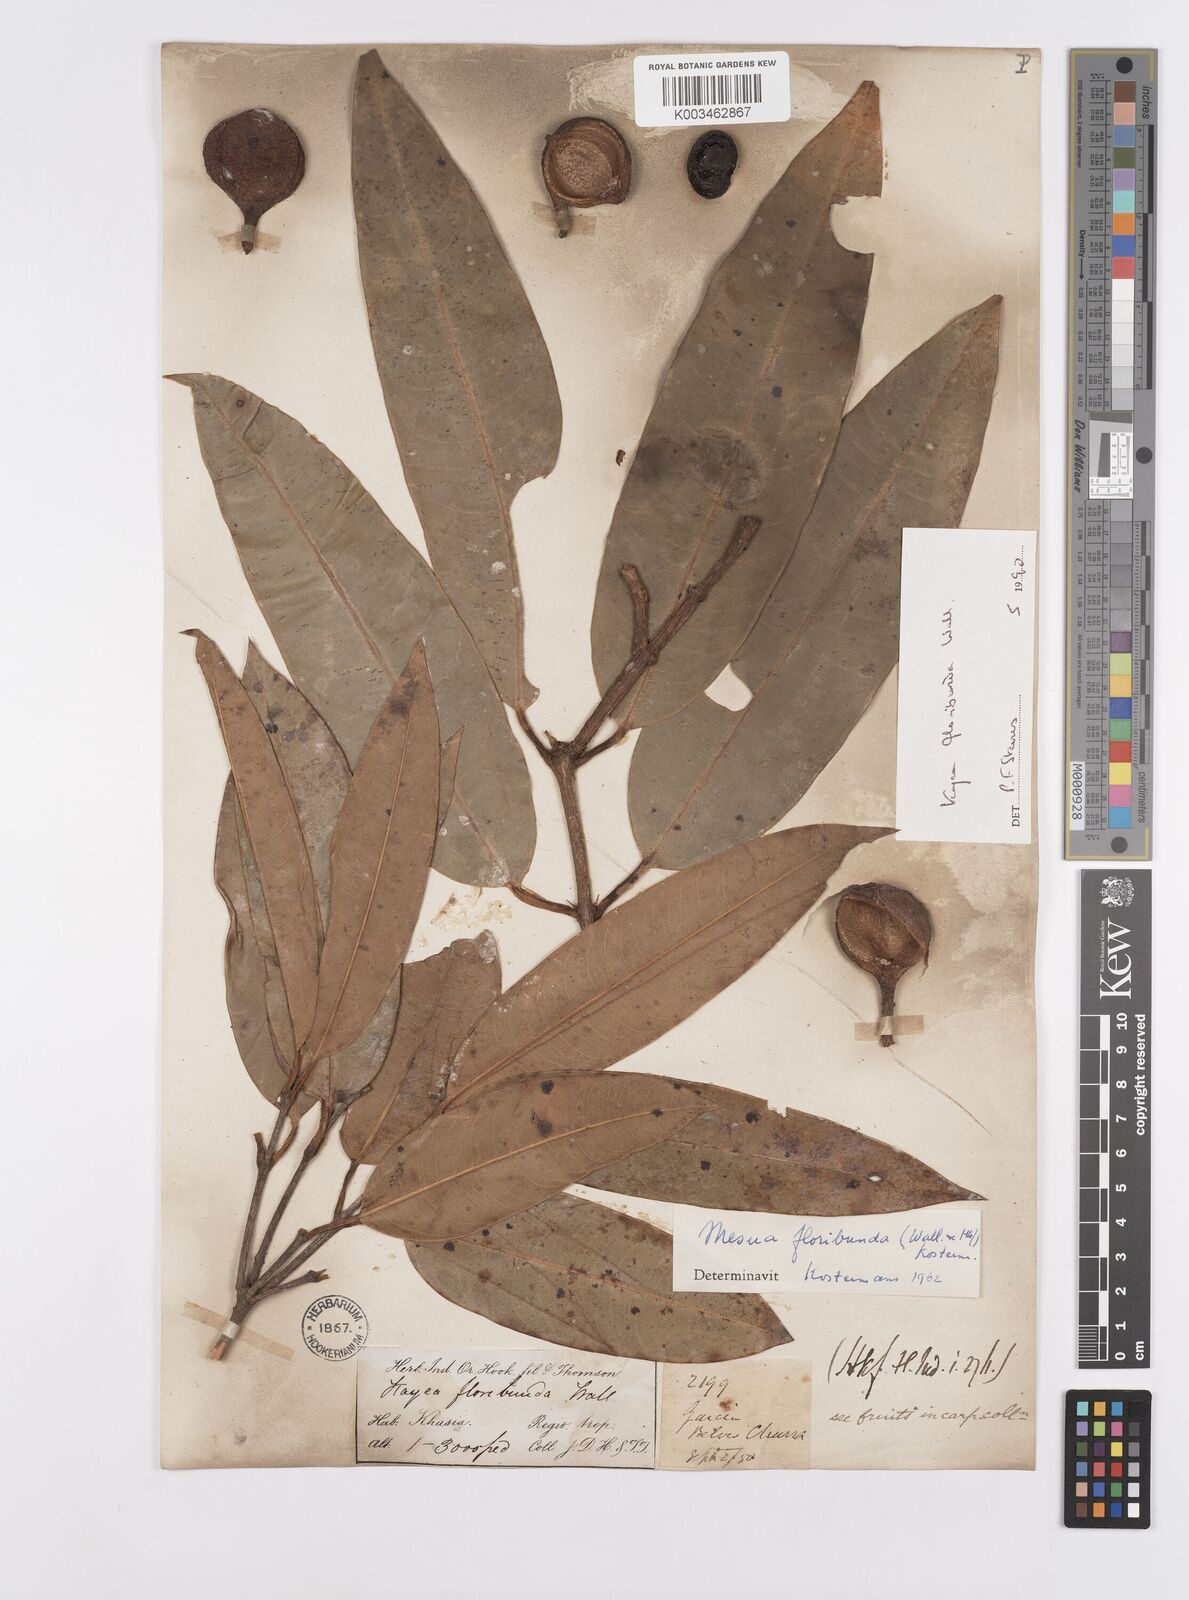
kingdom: Plantae
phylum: Tracheophyta
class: Magnoliopsida
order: Malpighiales
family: Calophyllaceae
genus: Kayea
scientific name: Kayea floribunda
